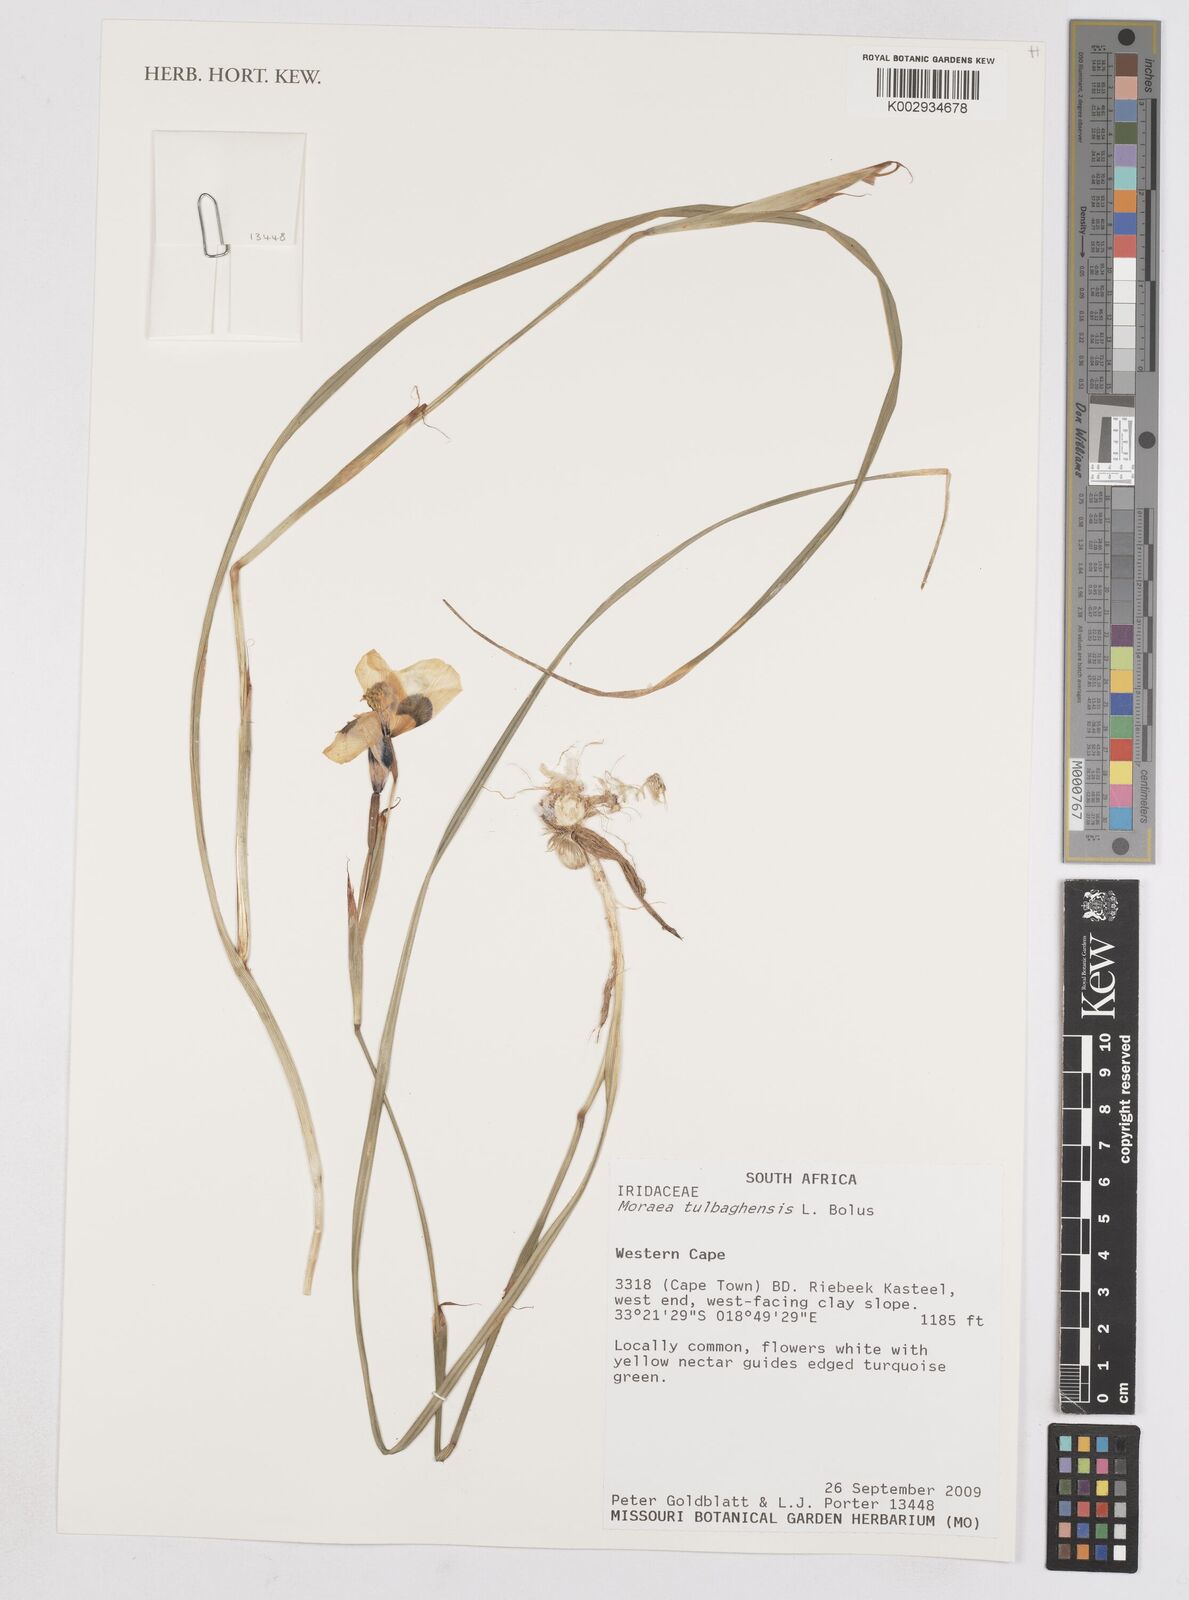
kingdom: Plantae
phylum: Tracheophyta
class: Liliopsida
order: Asparagales
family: Iridaceae
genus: Moraea
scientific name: Moraea tulbaghensis
